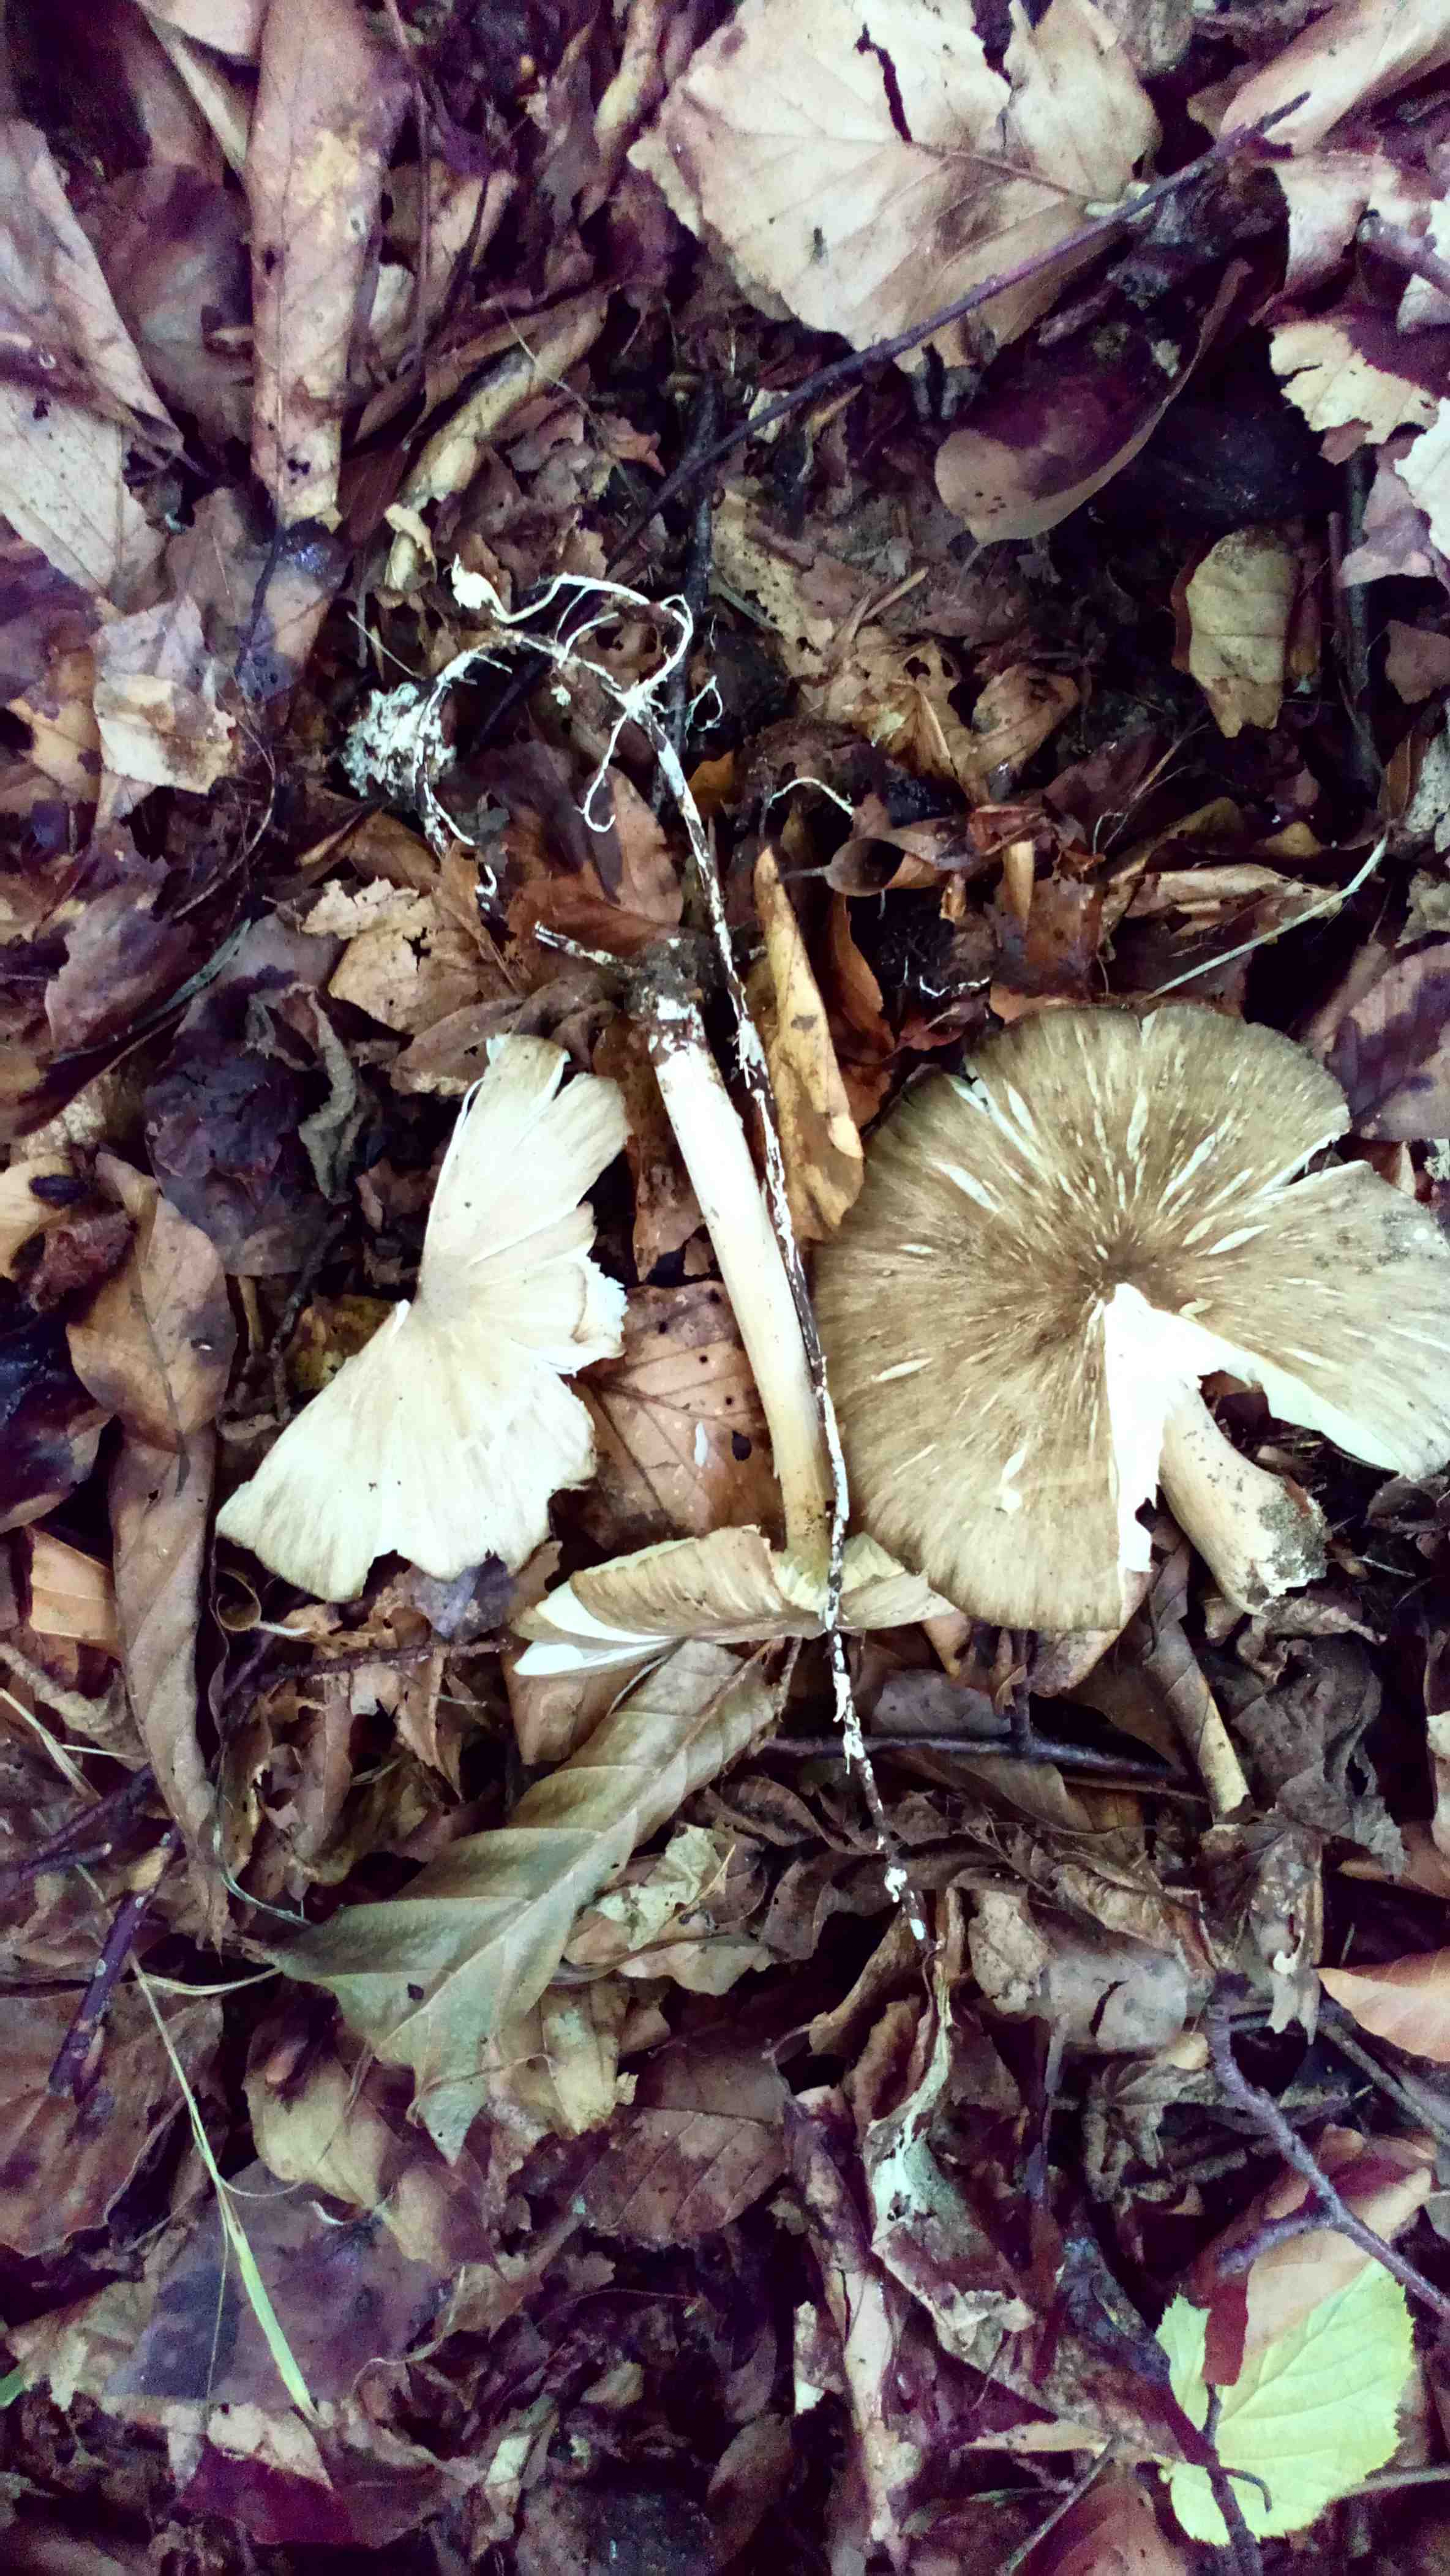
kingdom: Fungi
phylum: Basidiomycota
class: Agaricomycetes
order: Agaricales
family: Tricholomataceae
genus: Megacollybia
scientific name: Megacollybia platyphylla
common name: bredbladet væbnerhat
